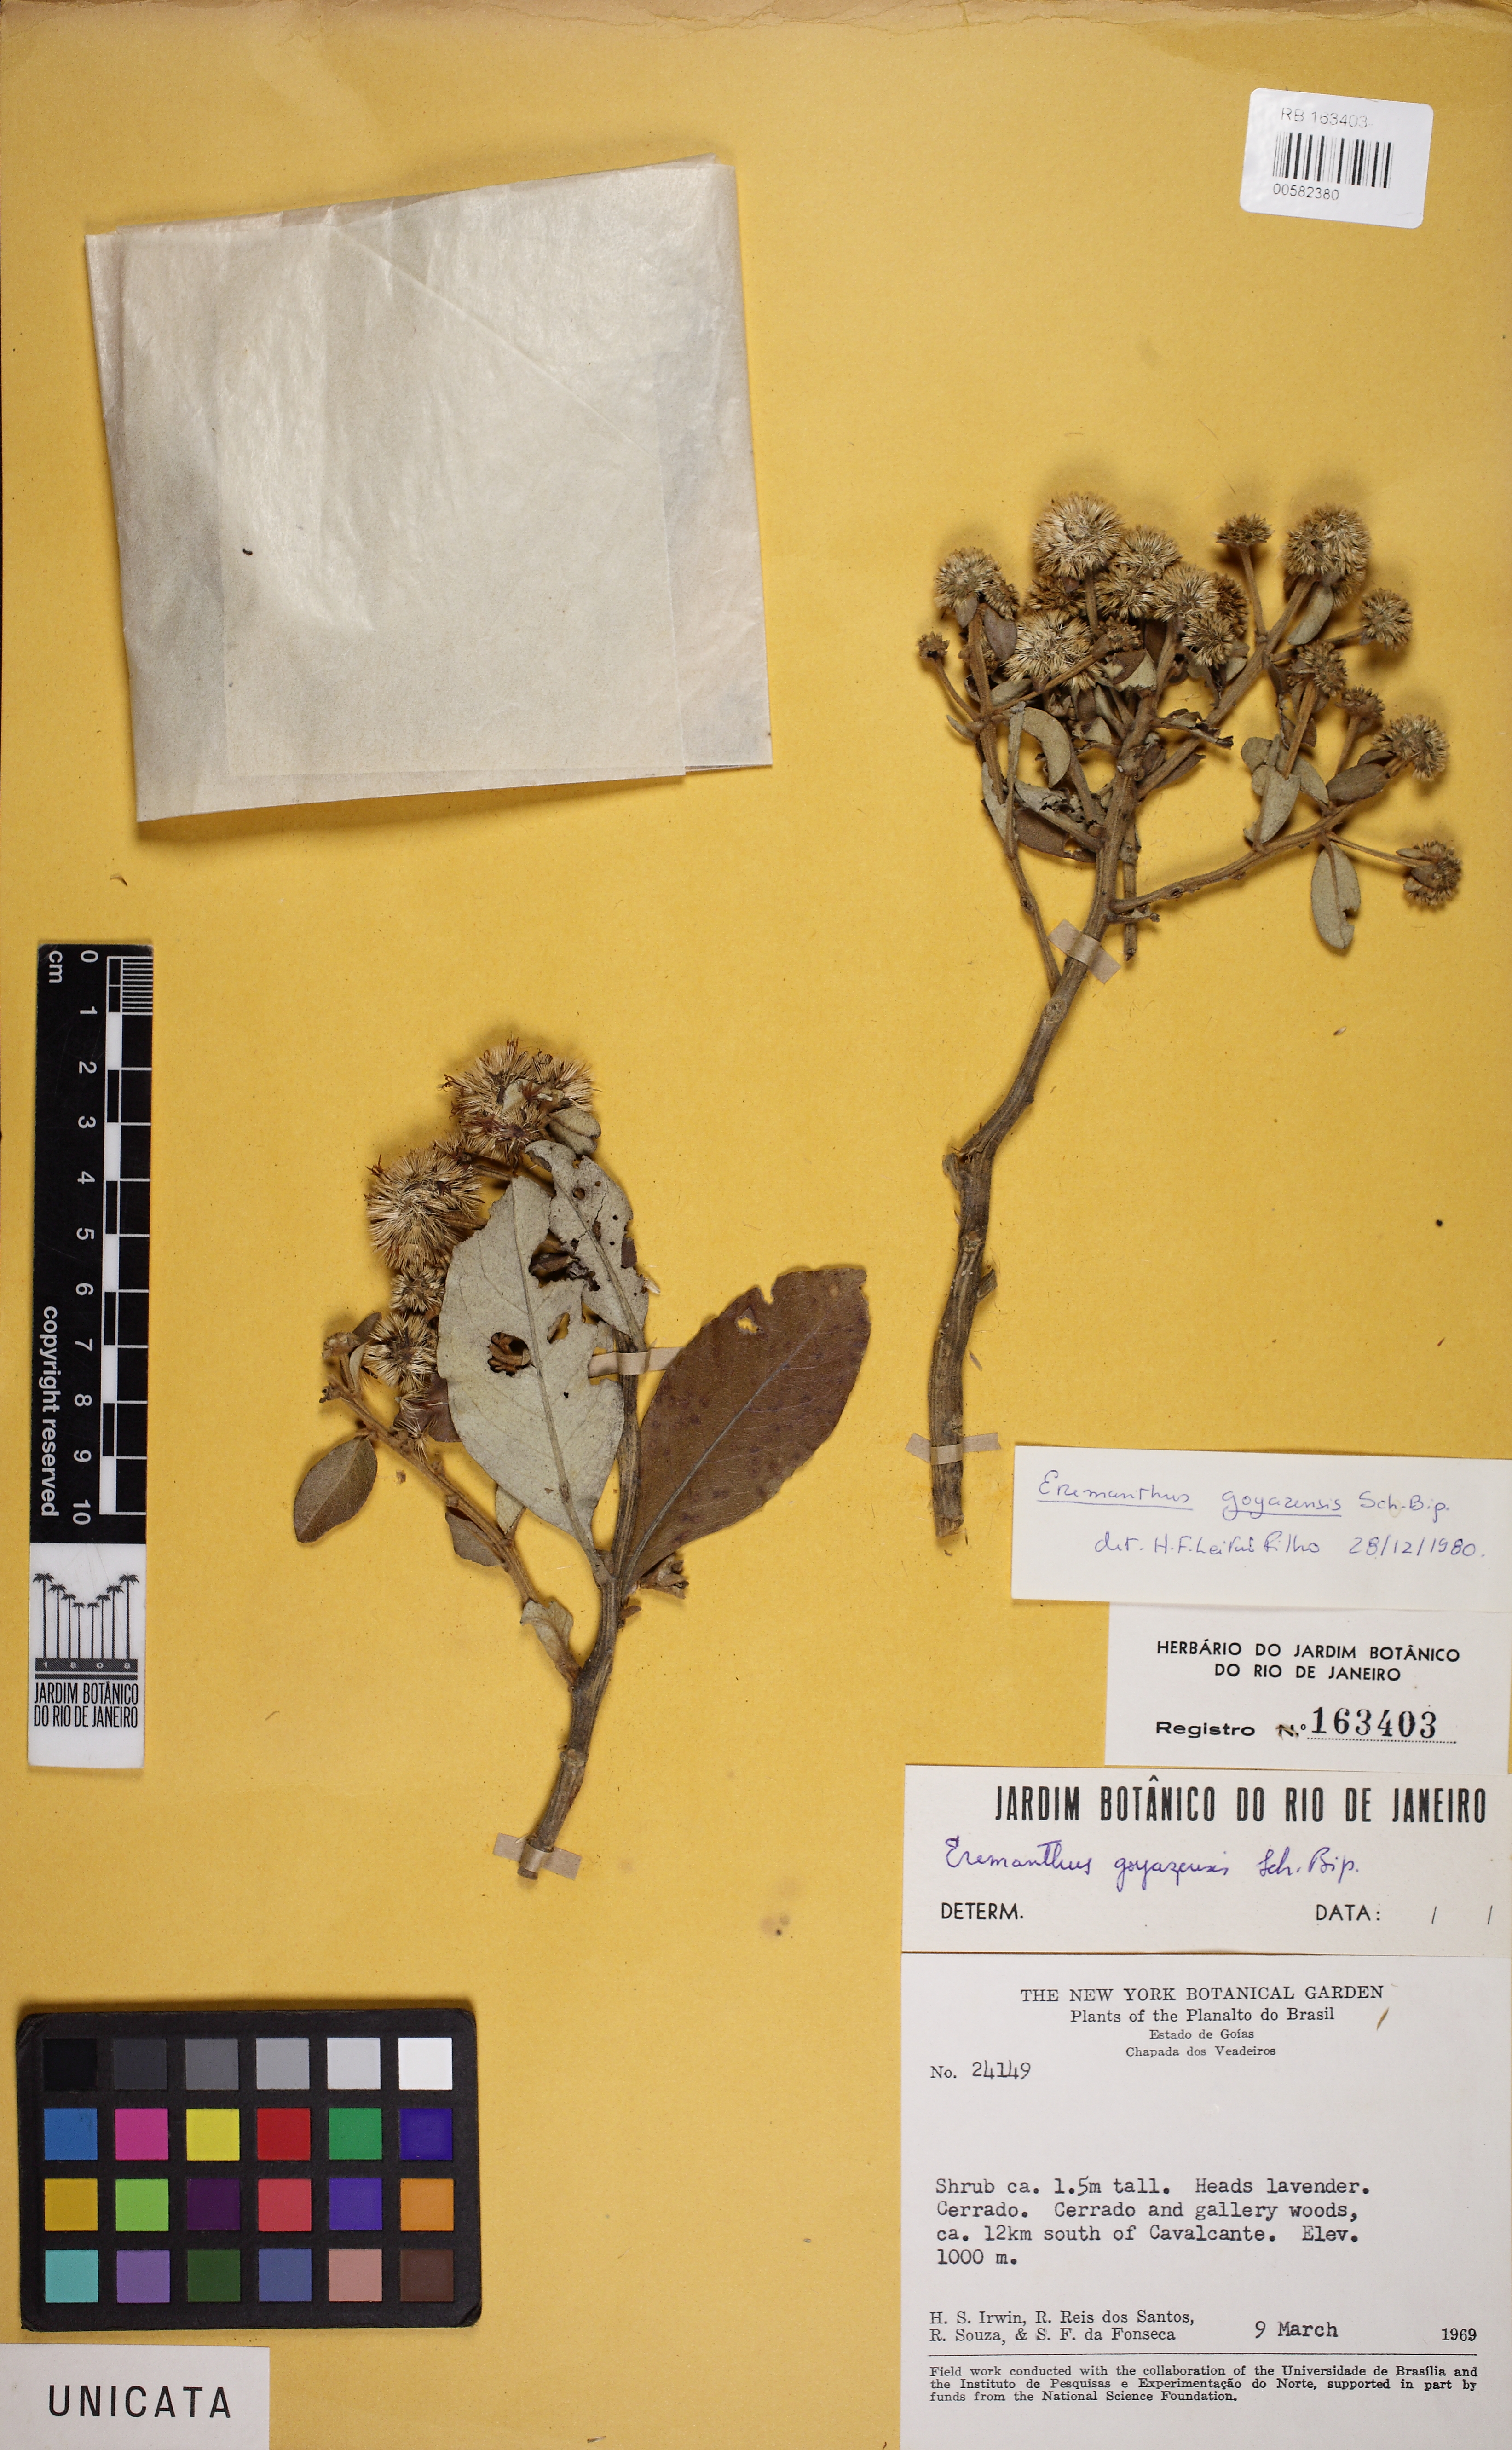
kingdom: Plantae
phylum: Tracheophyta
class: Magnoliopsida
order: Asterales
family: Asteraceae
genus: Eremanthus
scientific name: Eremanthus goyazensis
